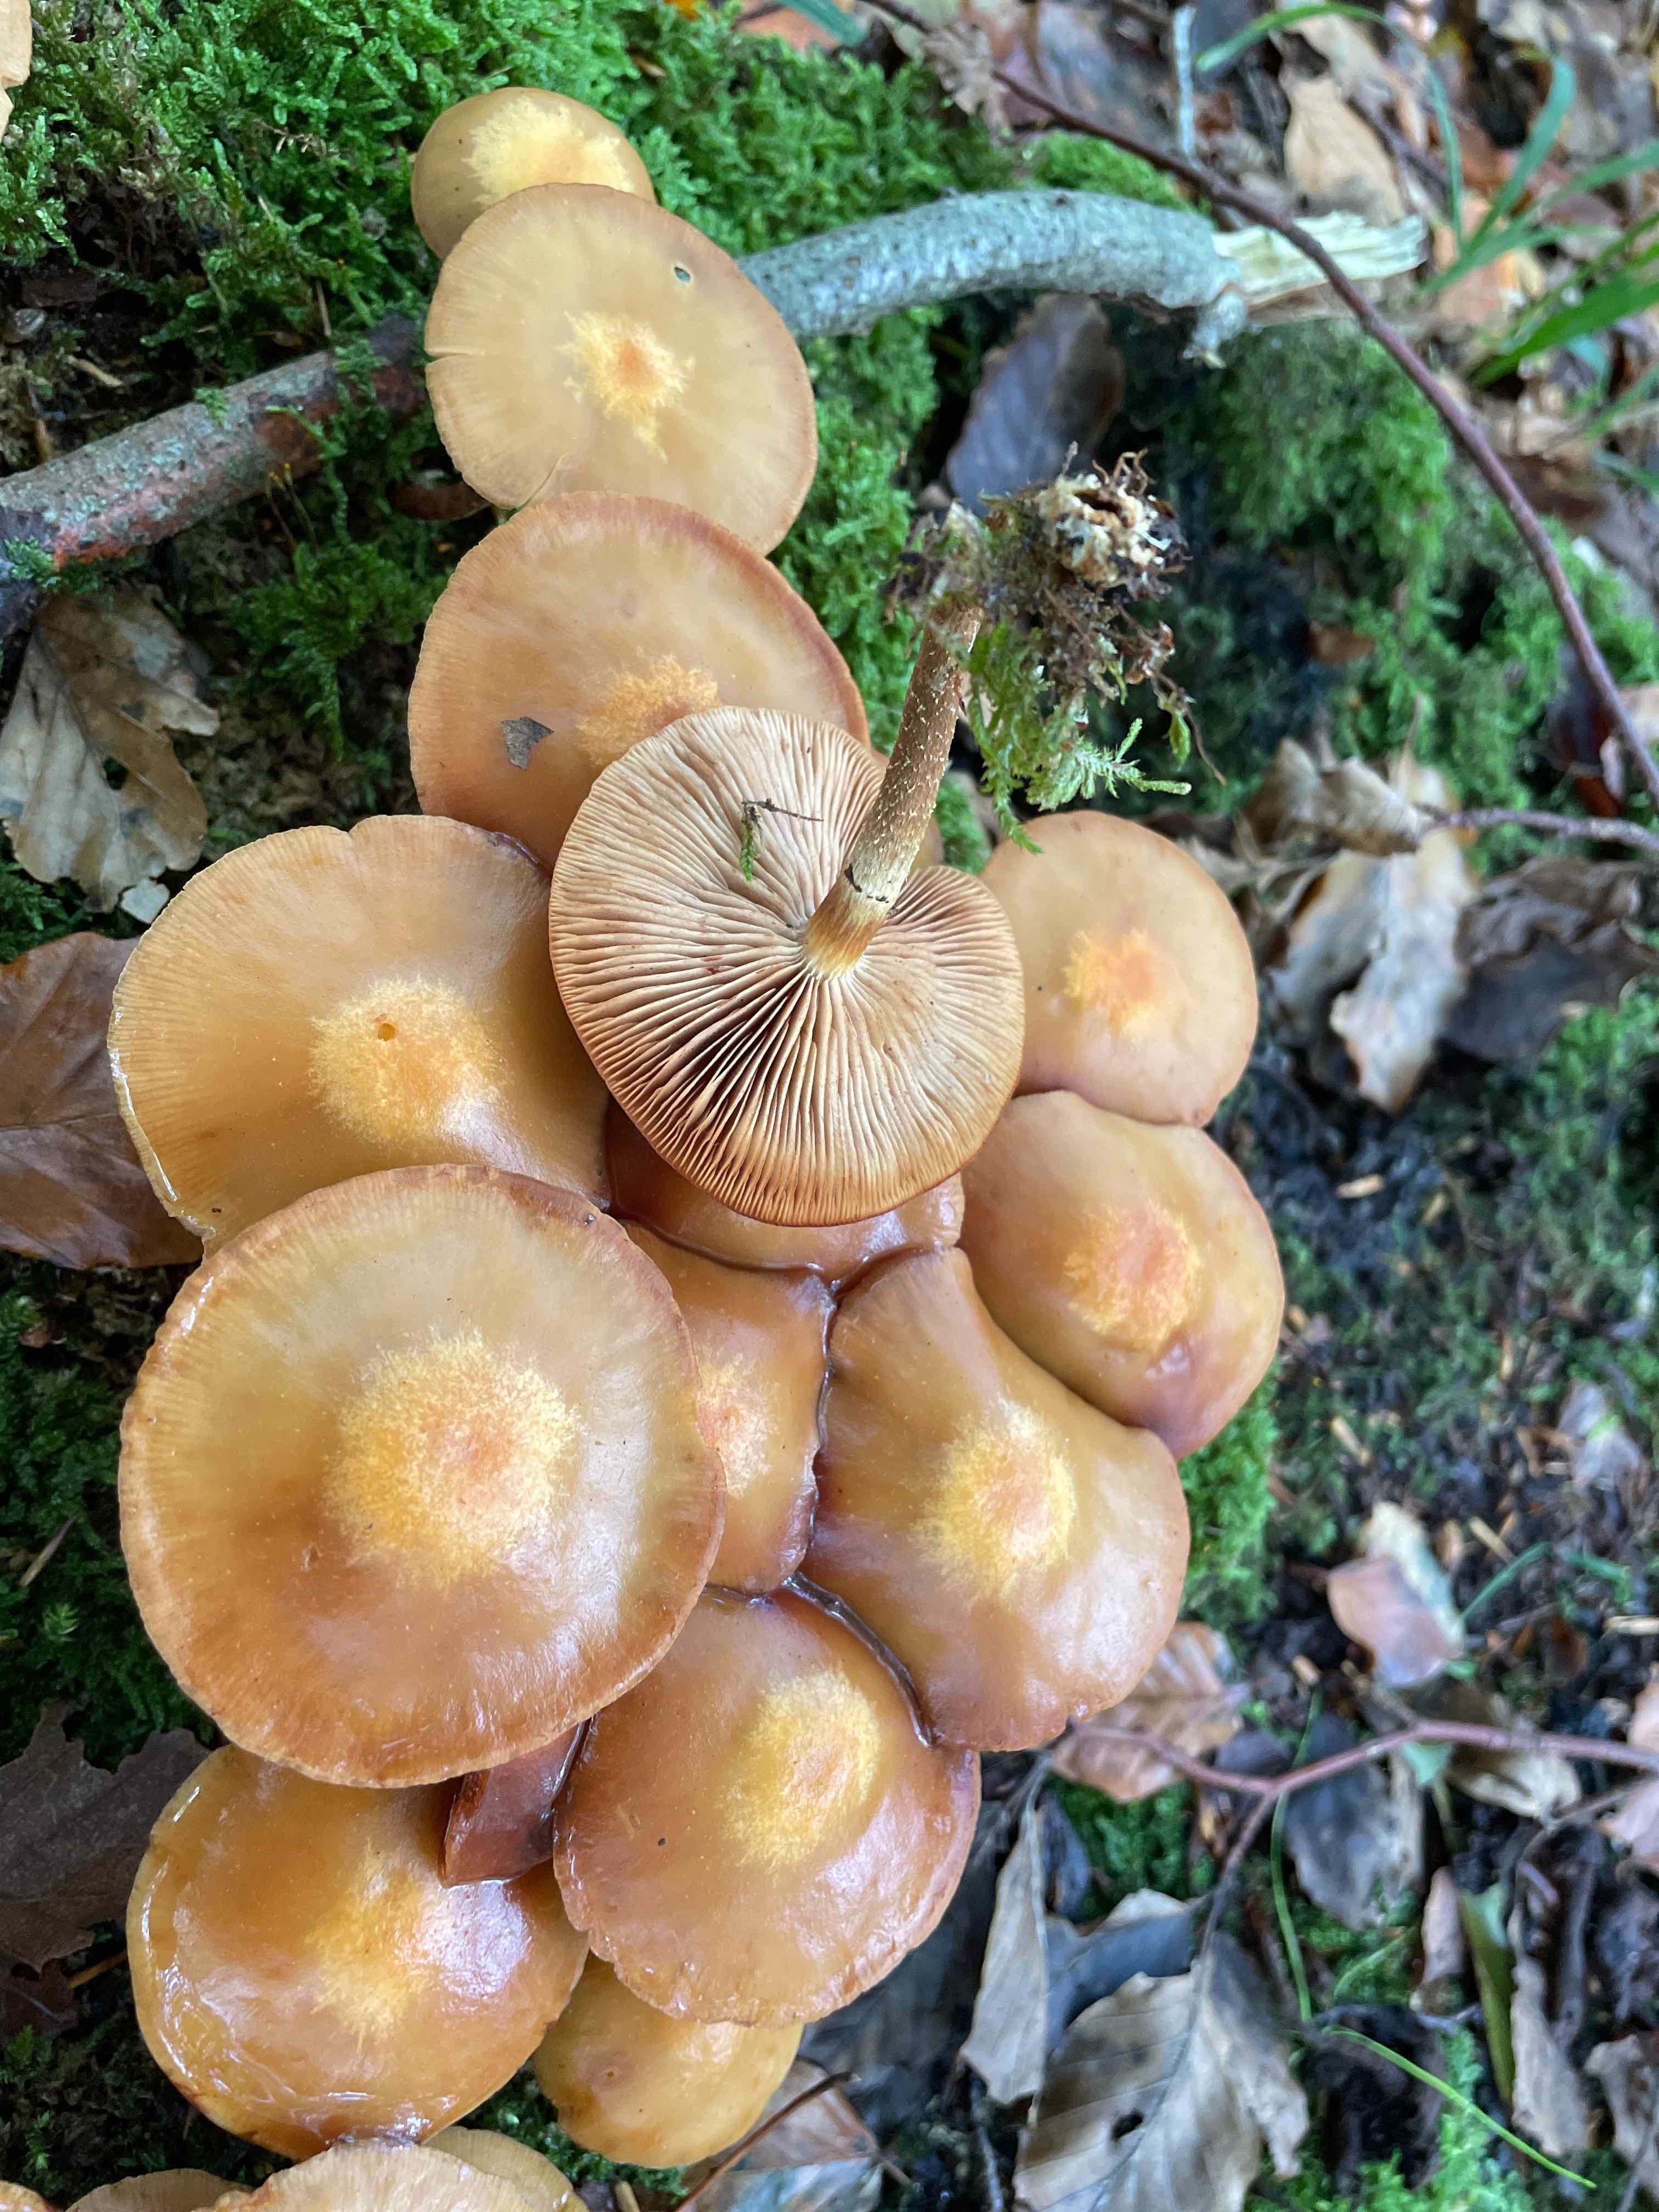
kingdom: Fungi
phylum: Basidiomycota
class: Agaricomycetes
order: Agaricales
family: Strophariaceae
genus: Kuehneromyces
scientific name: Kuehneromyces mutabilis
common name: foranderlig skælhat
